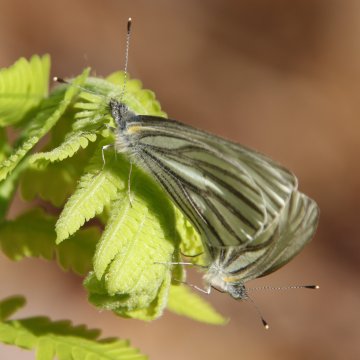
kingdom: Animalia
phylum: Arthropoda
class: Insecta
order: Lepidoptera
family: Pieridae
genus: Pieris
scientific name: Pieris oleracea
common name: Mustard White
